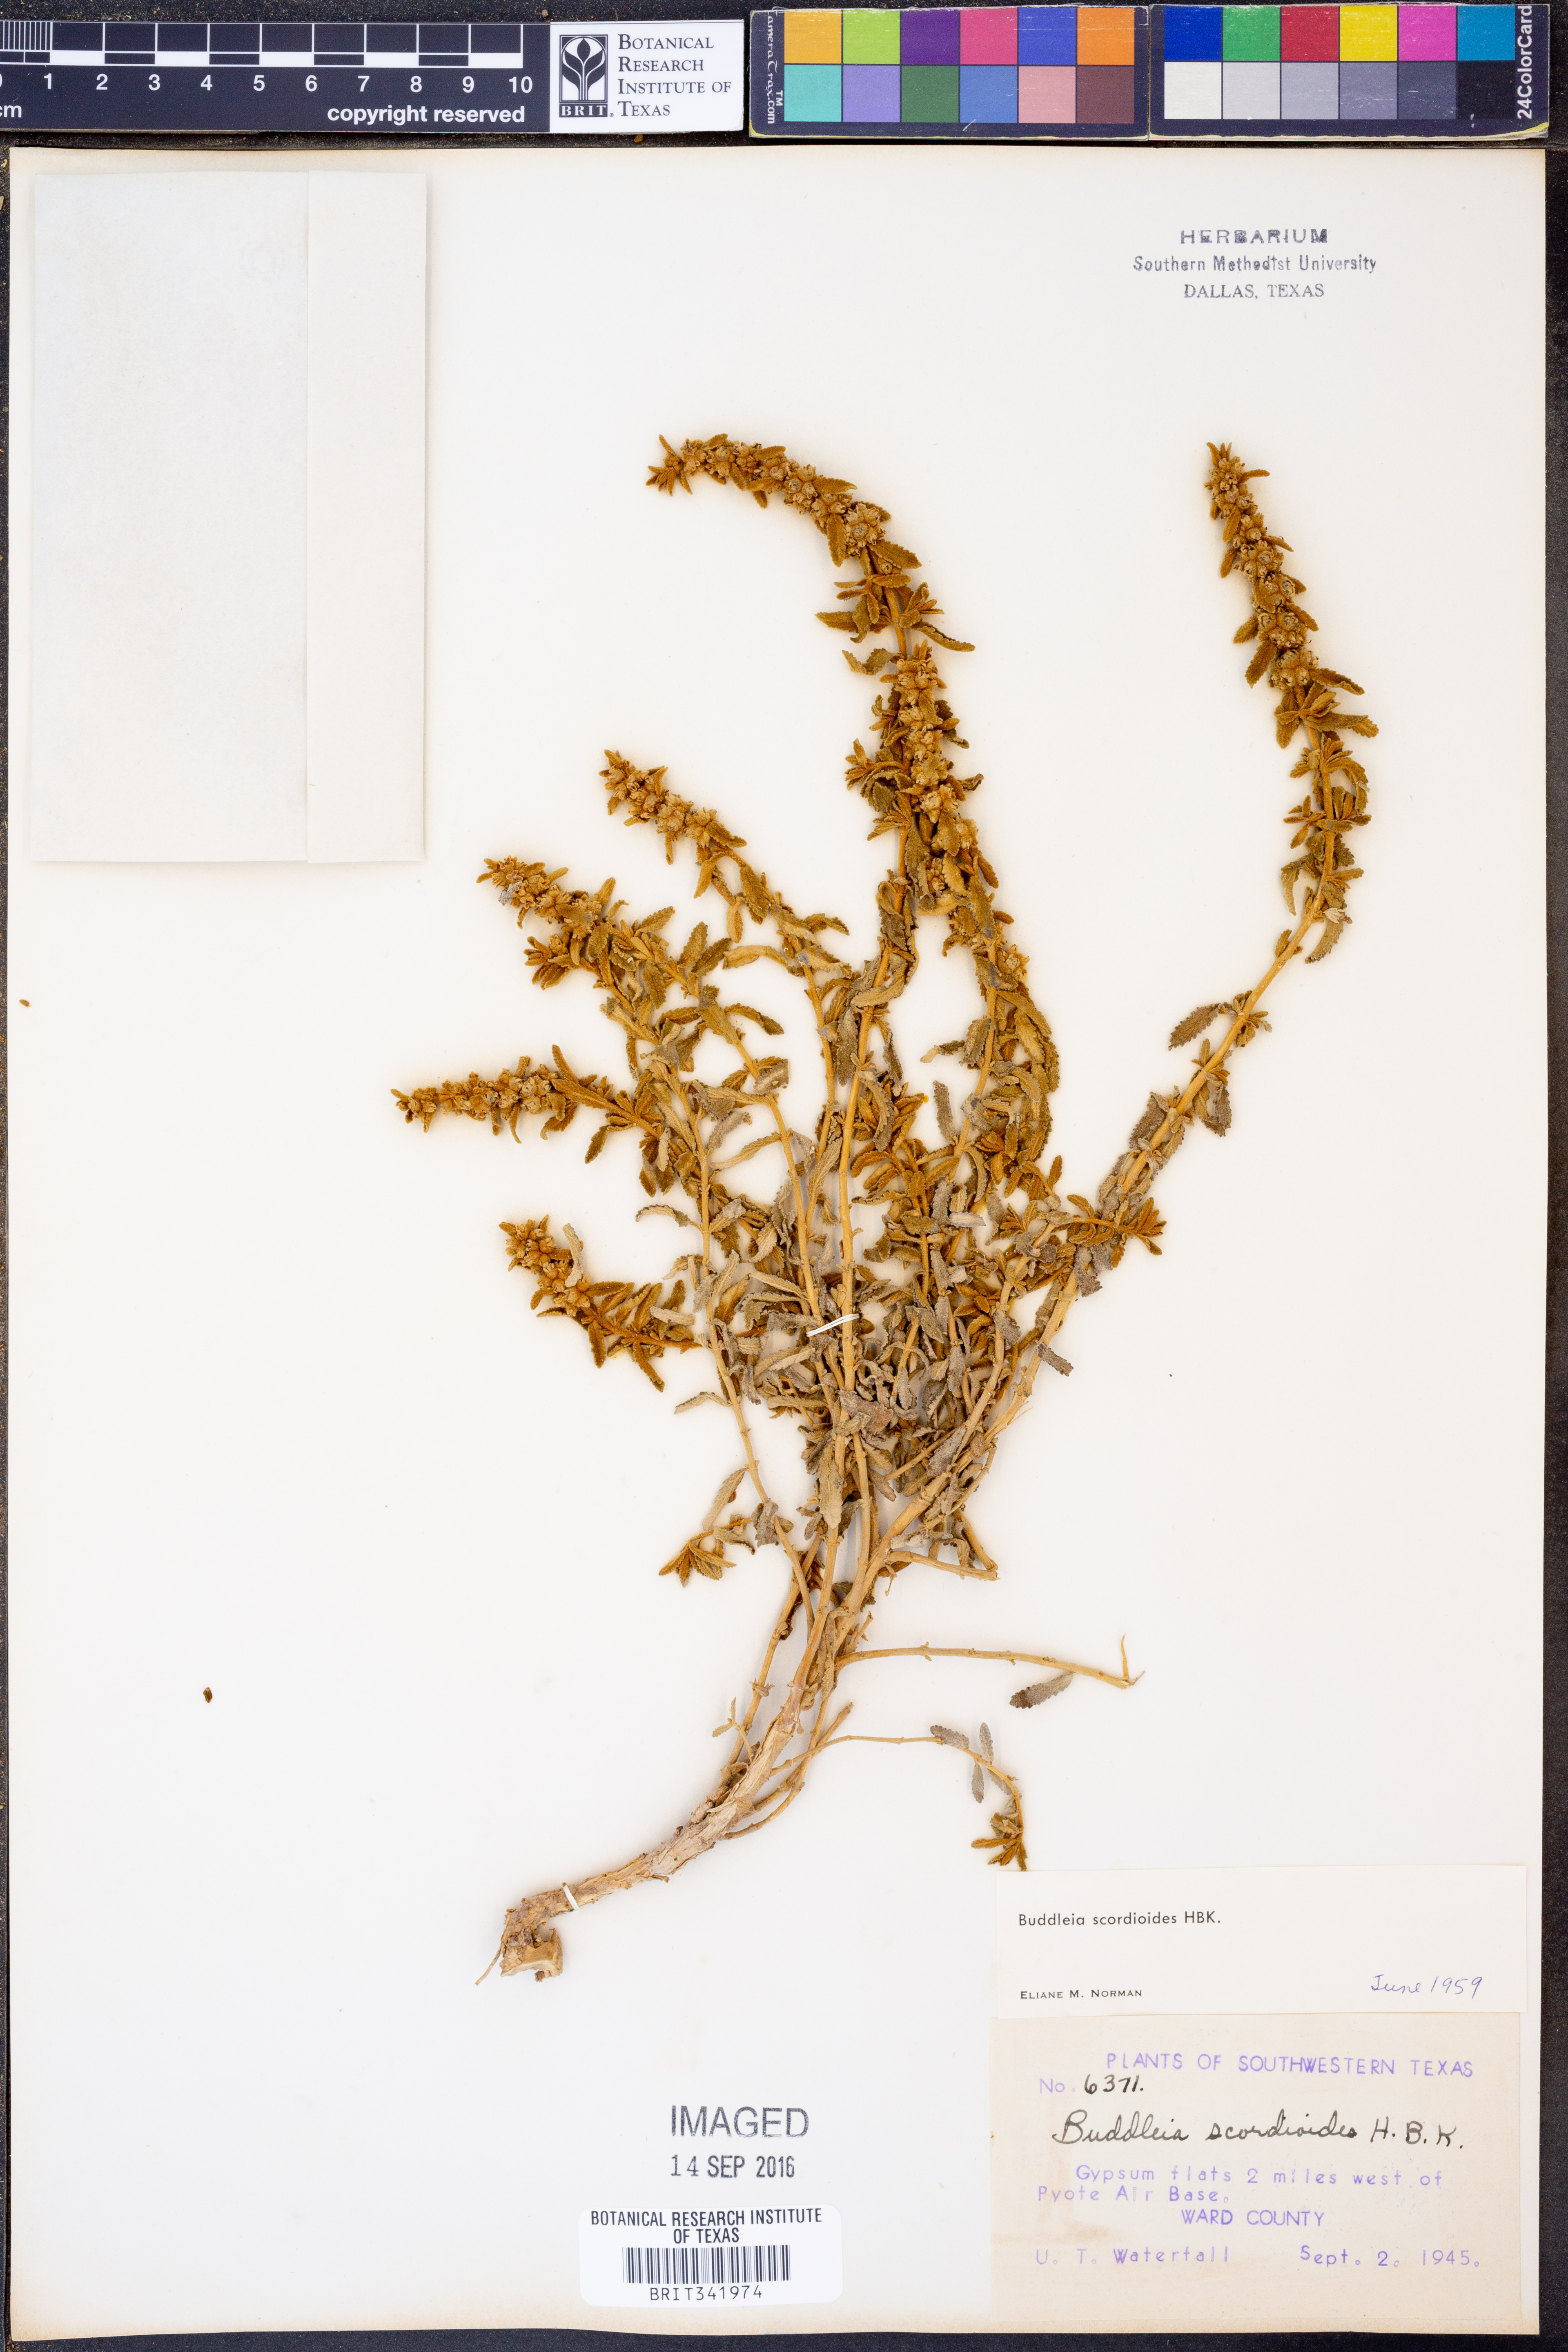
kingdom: Plantae
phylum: Tracheophyta
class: Magnoliopsida
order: Lamiales
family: Scrophulariaceae
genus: Buddleja
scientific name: Buddleja scordioides
